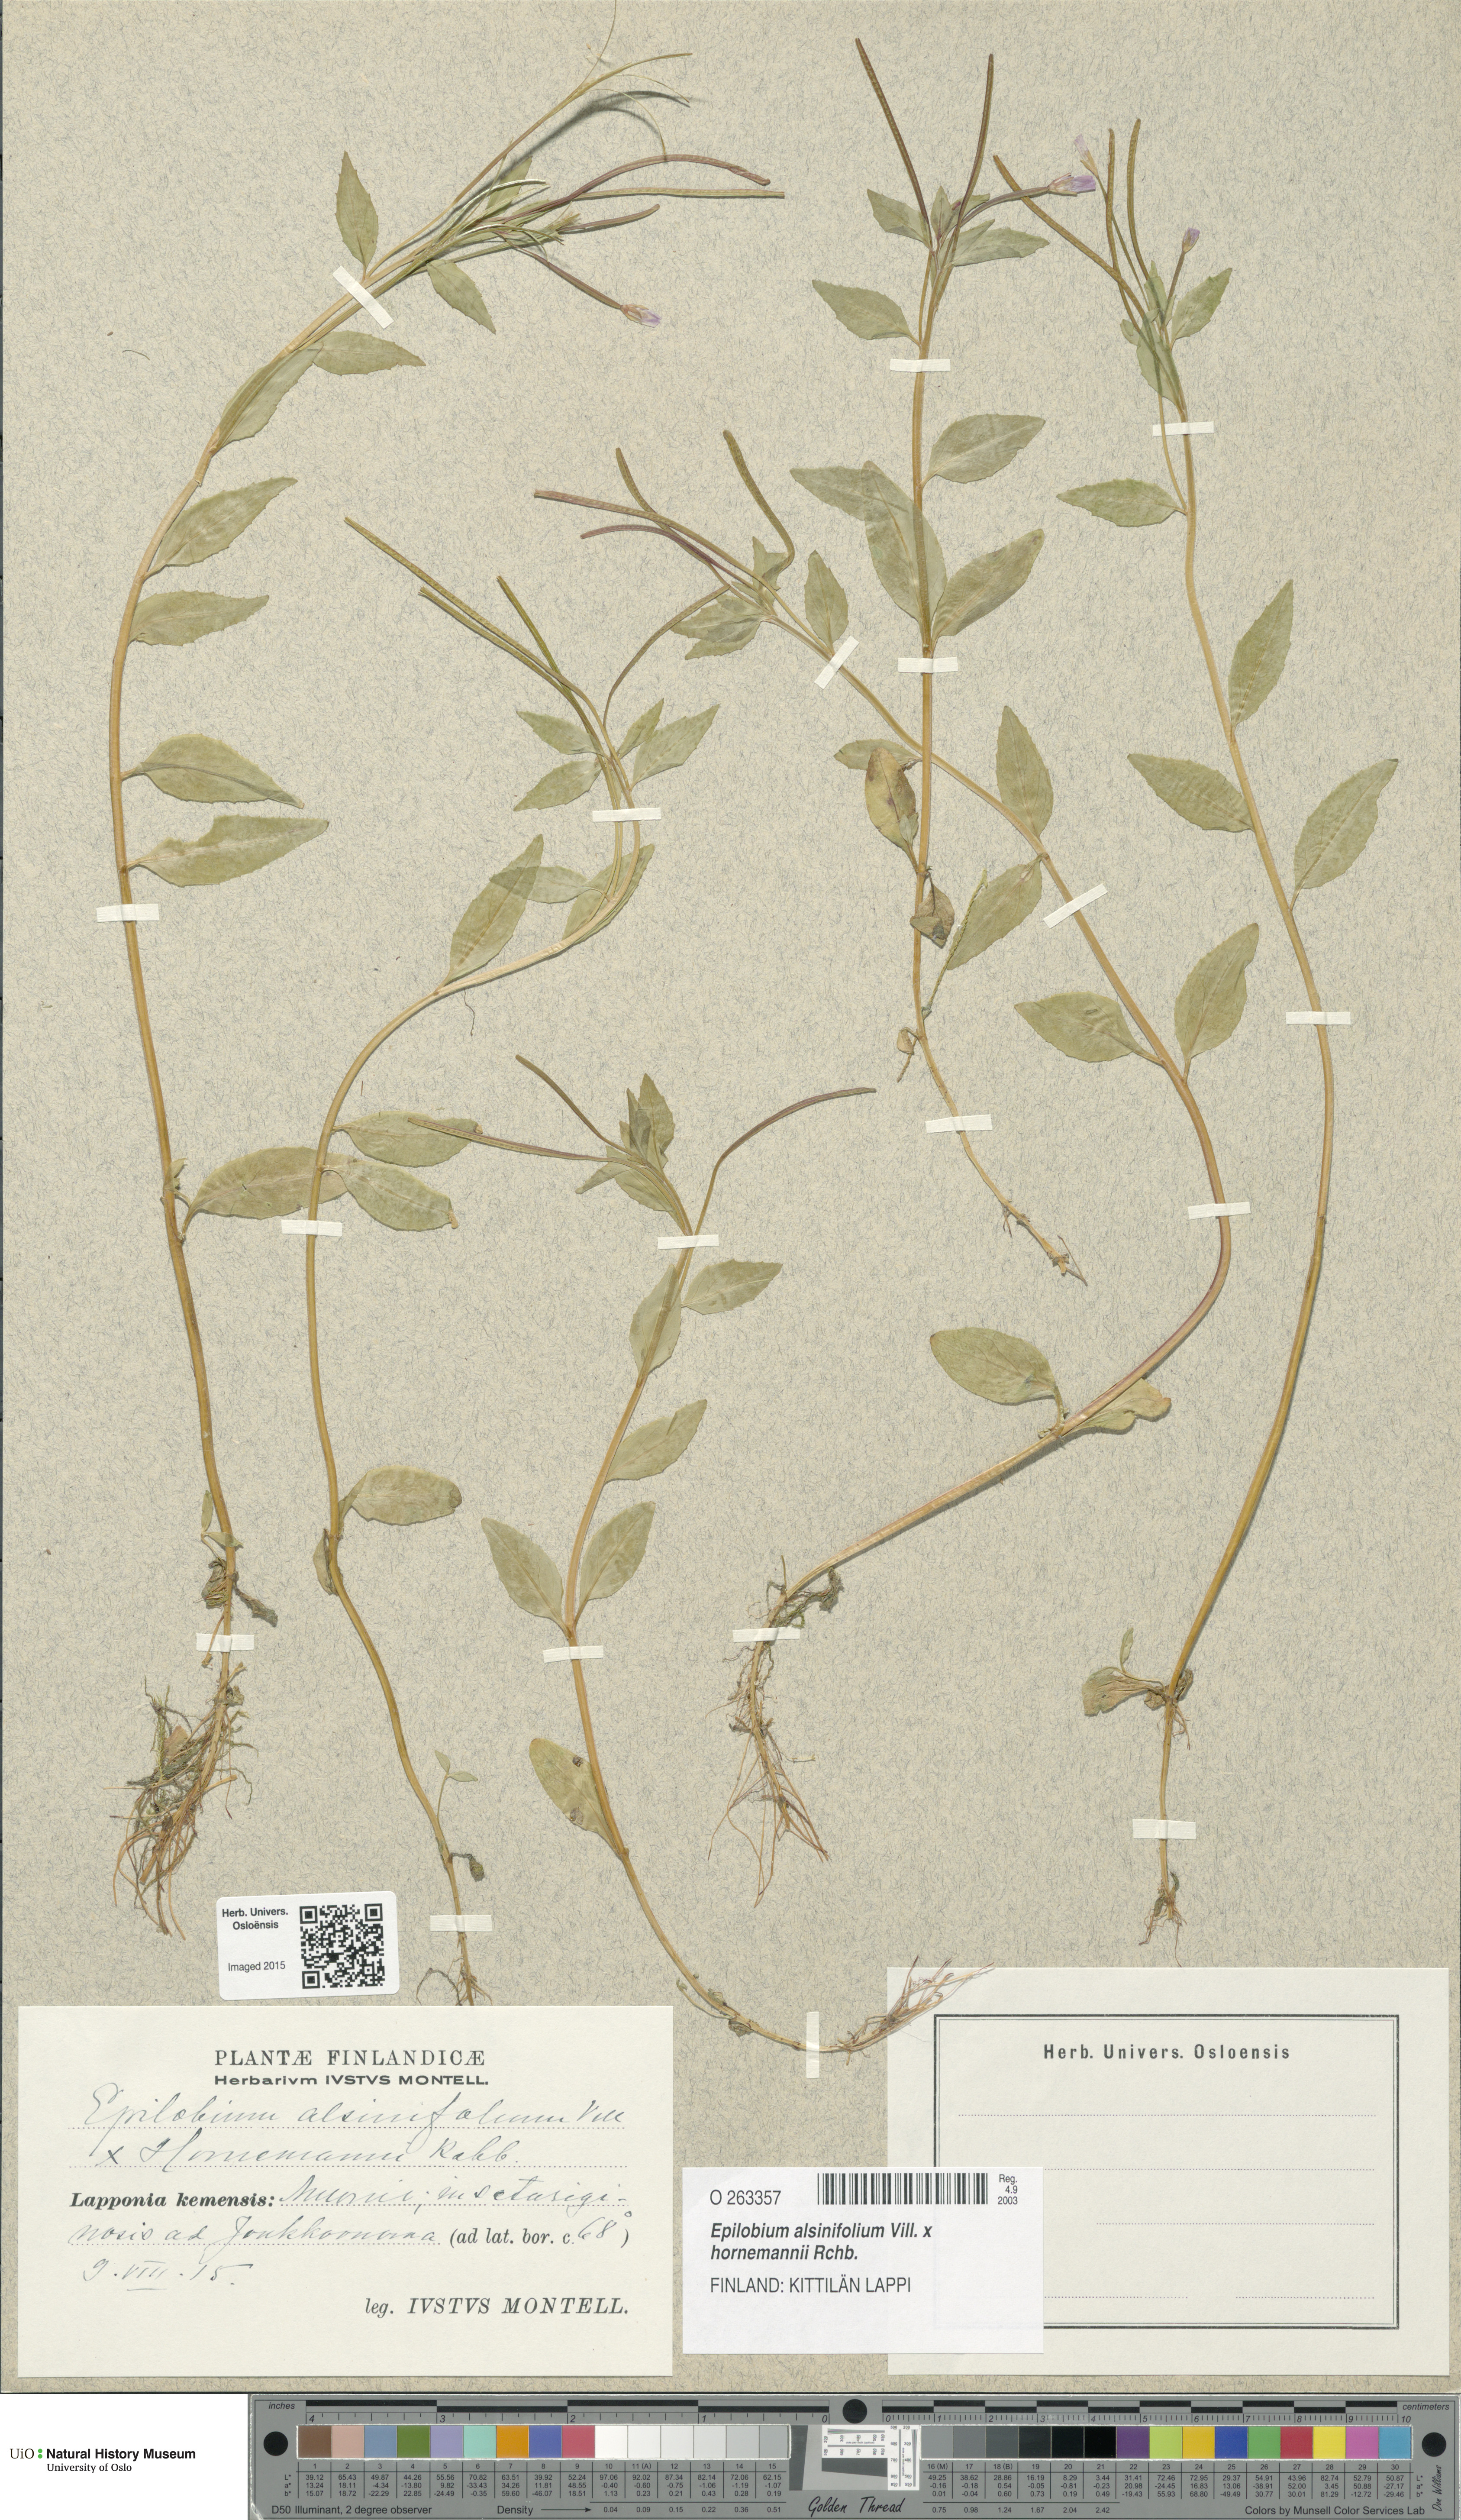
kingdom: Plantae
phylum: Tracheophyta
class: Magnoliopsida
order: Myrtales
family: Onagraceae
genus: Epilobium
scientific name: Epilobium
